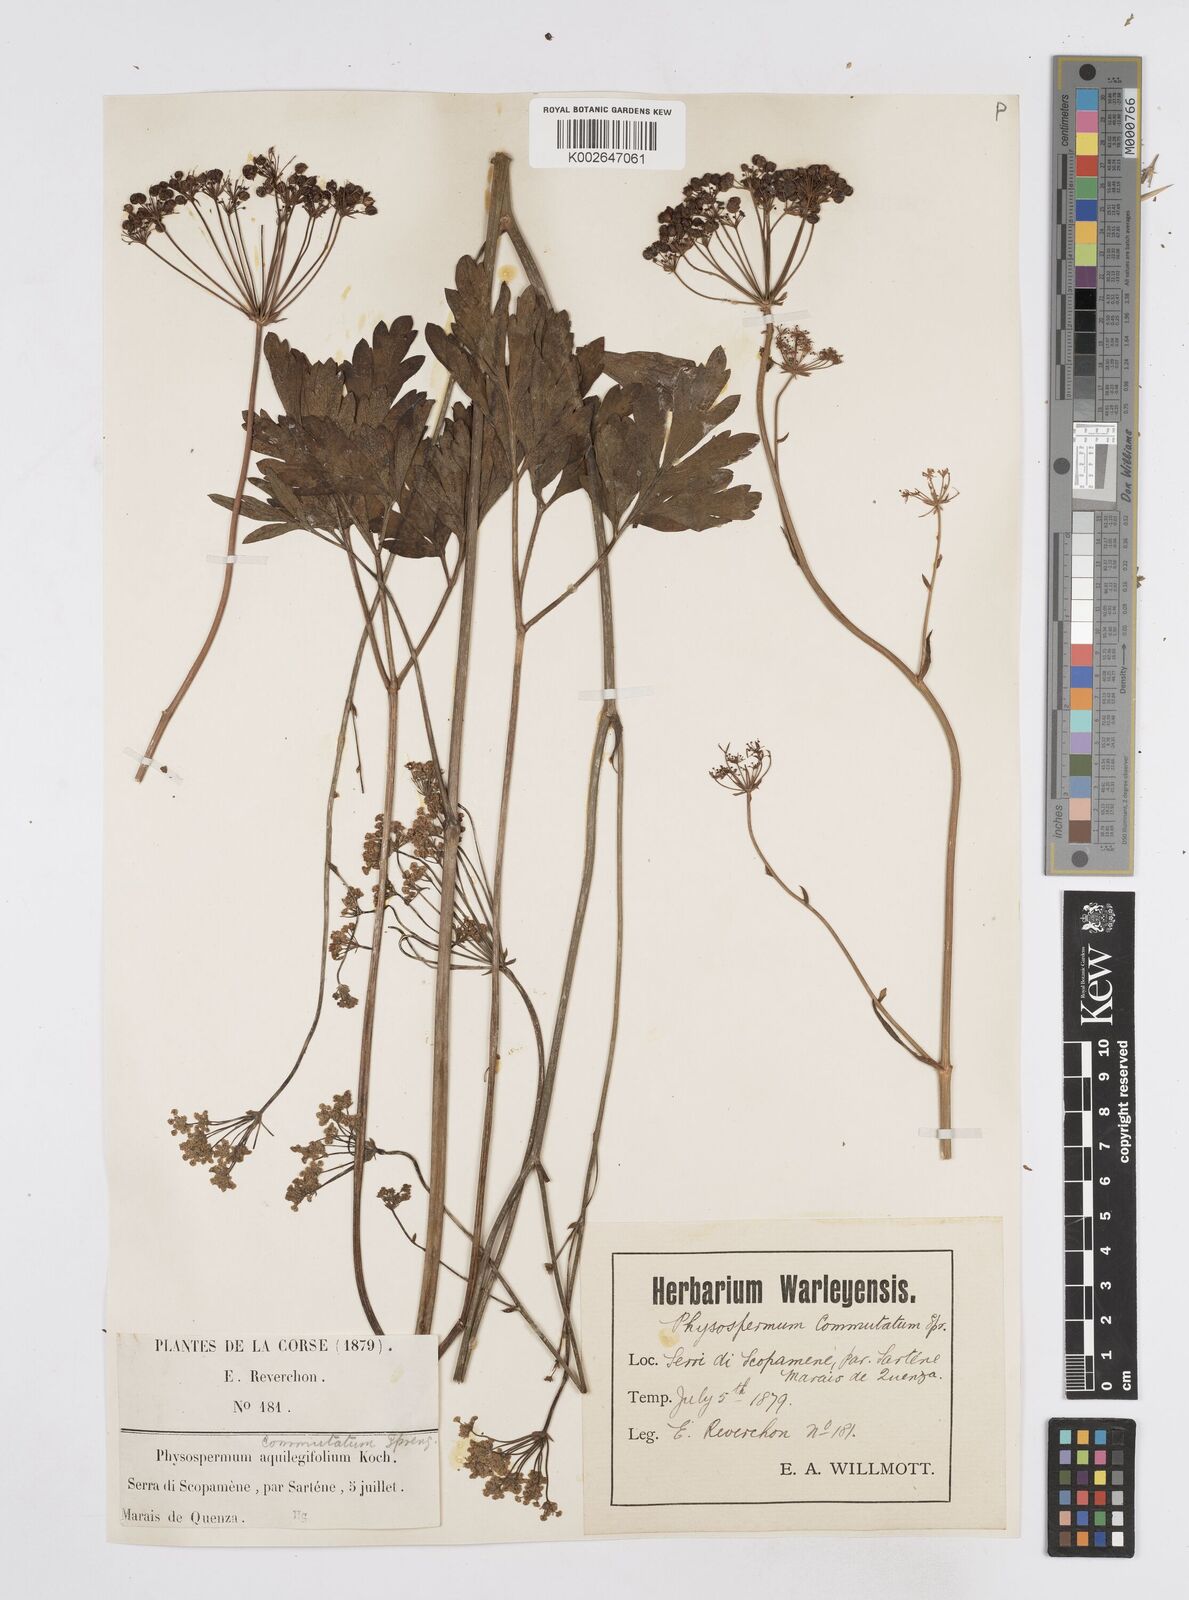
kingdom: Plantae
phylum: Tracheophyta
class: Magnoliopsida
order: Apiales
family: Apiaceae
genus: Physospermum
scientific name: Physospermum cornubiense
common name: Bladderseed
